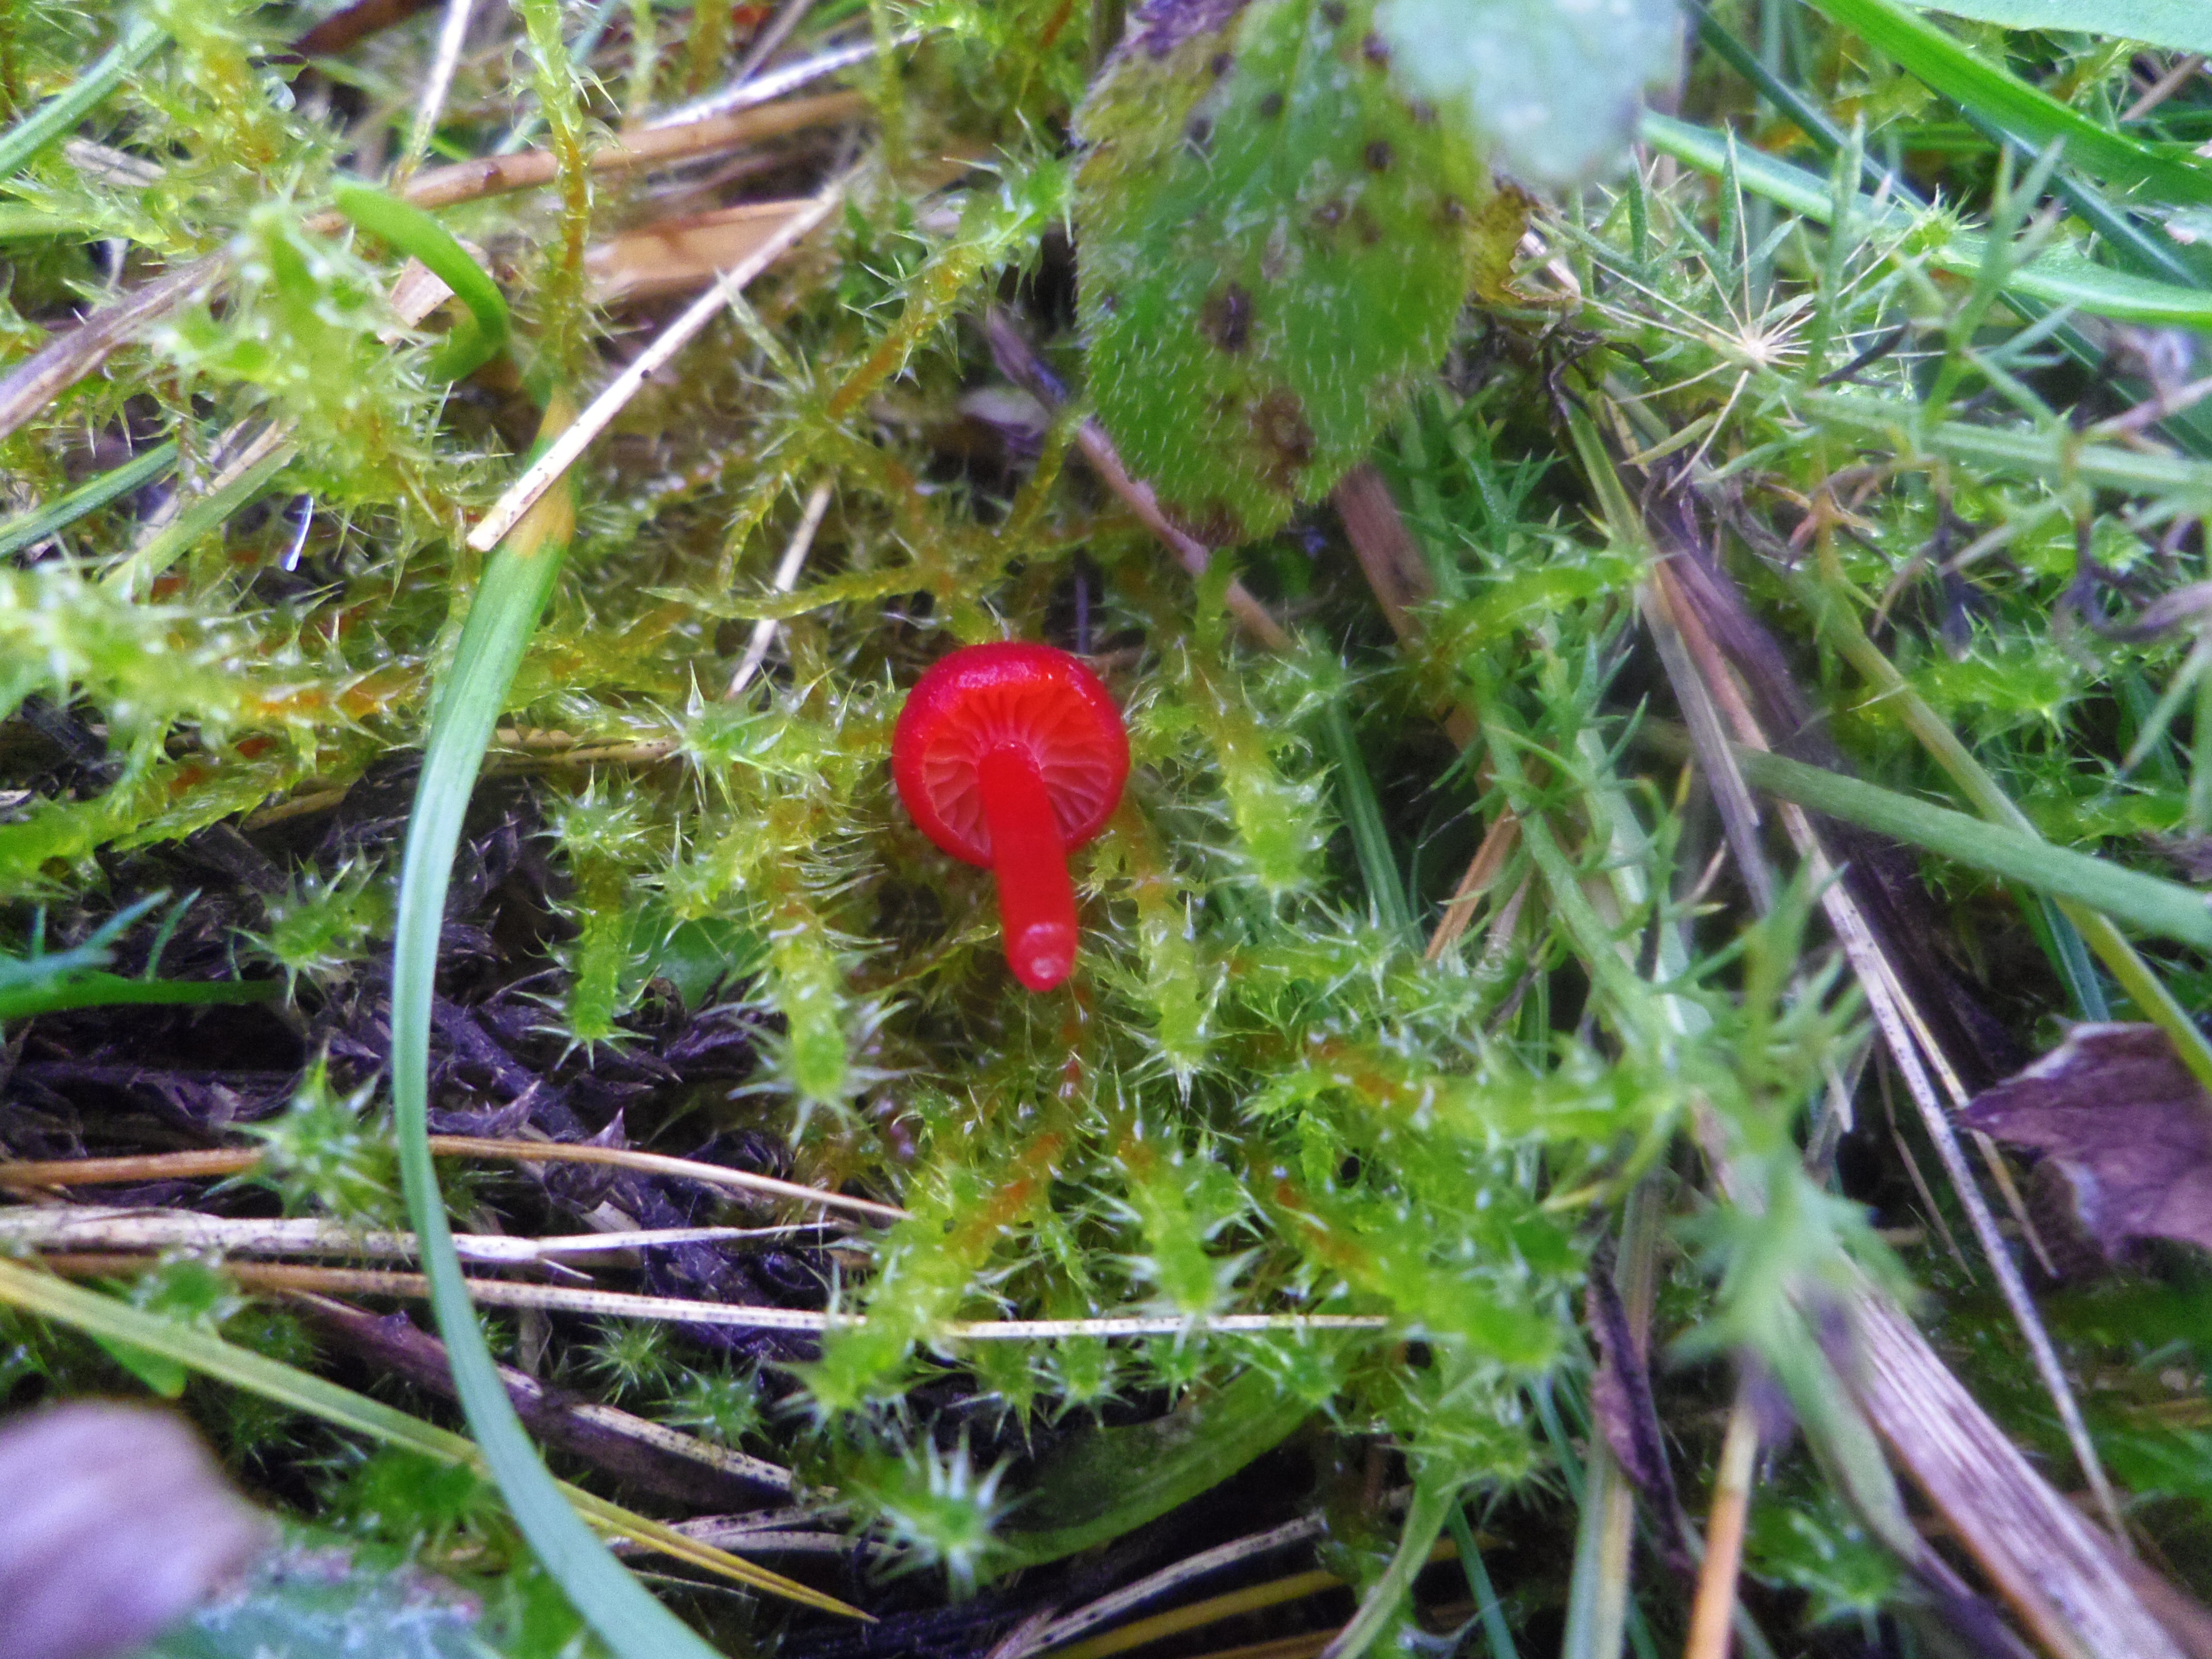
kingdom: Fungi
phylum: Basidiomycota
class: Agaricomycetes
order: Agaricales
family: Hygrophoraceae
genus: Hygrocybe
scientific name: Hygrocybe
